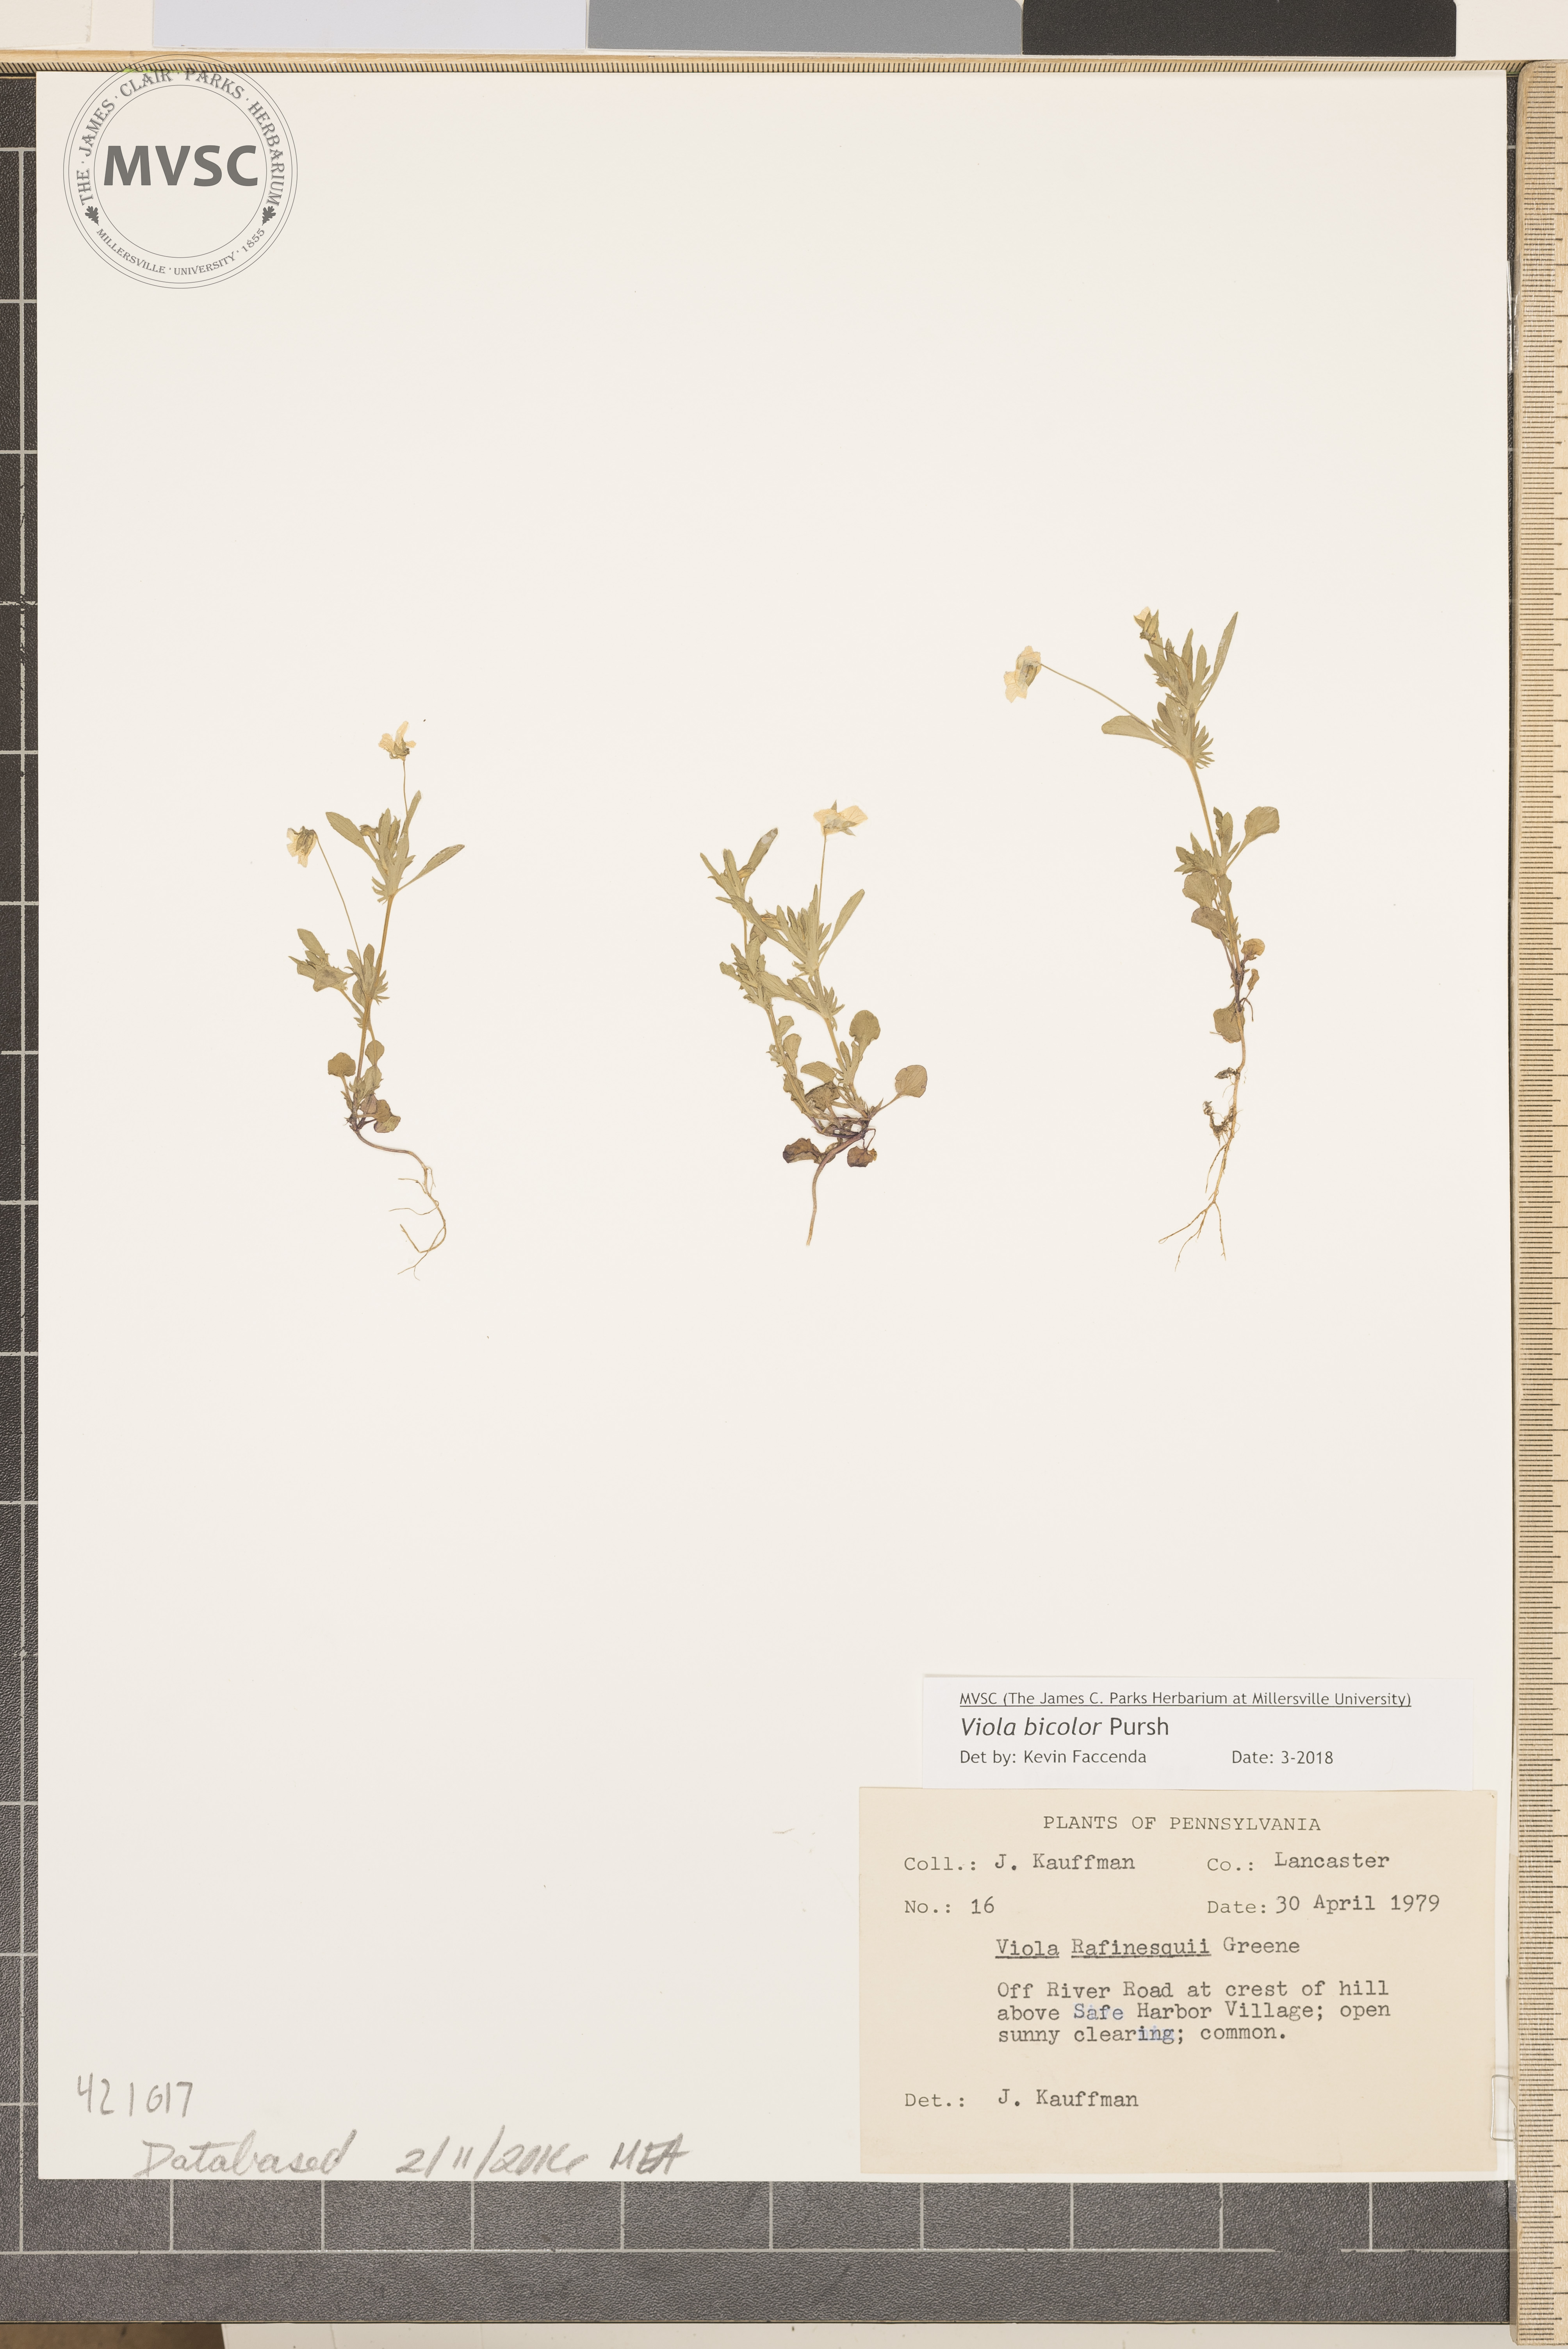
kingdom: Plantae
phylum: Tracheophyta
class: Magnoliopsida
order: Malpighiales
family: Violaceae
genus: Viola
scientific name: Viola rafinesquei
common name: wild pansy
